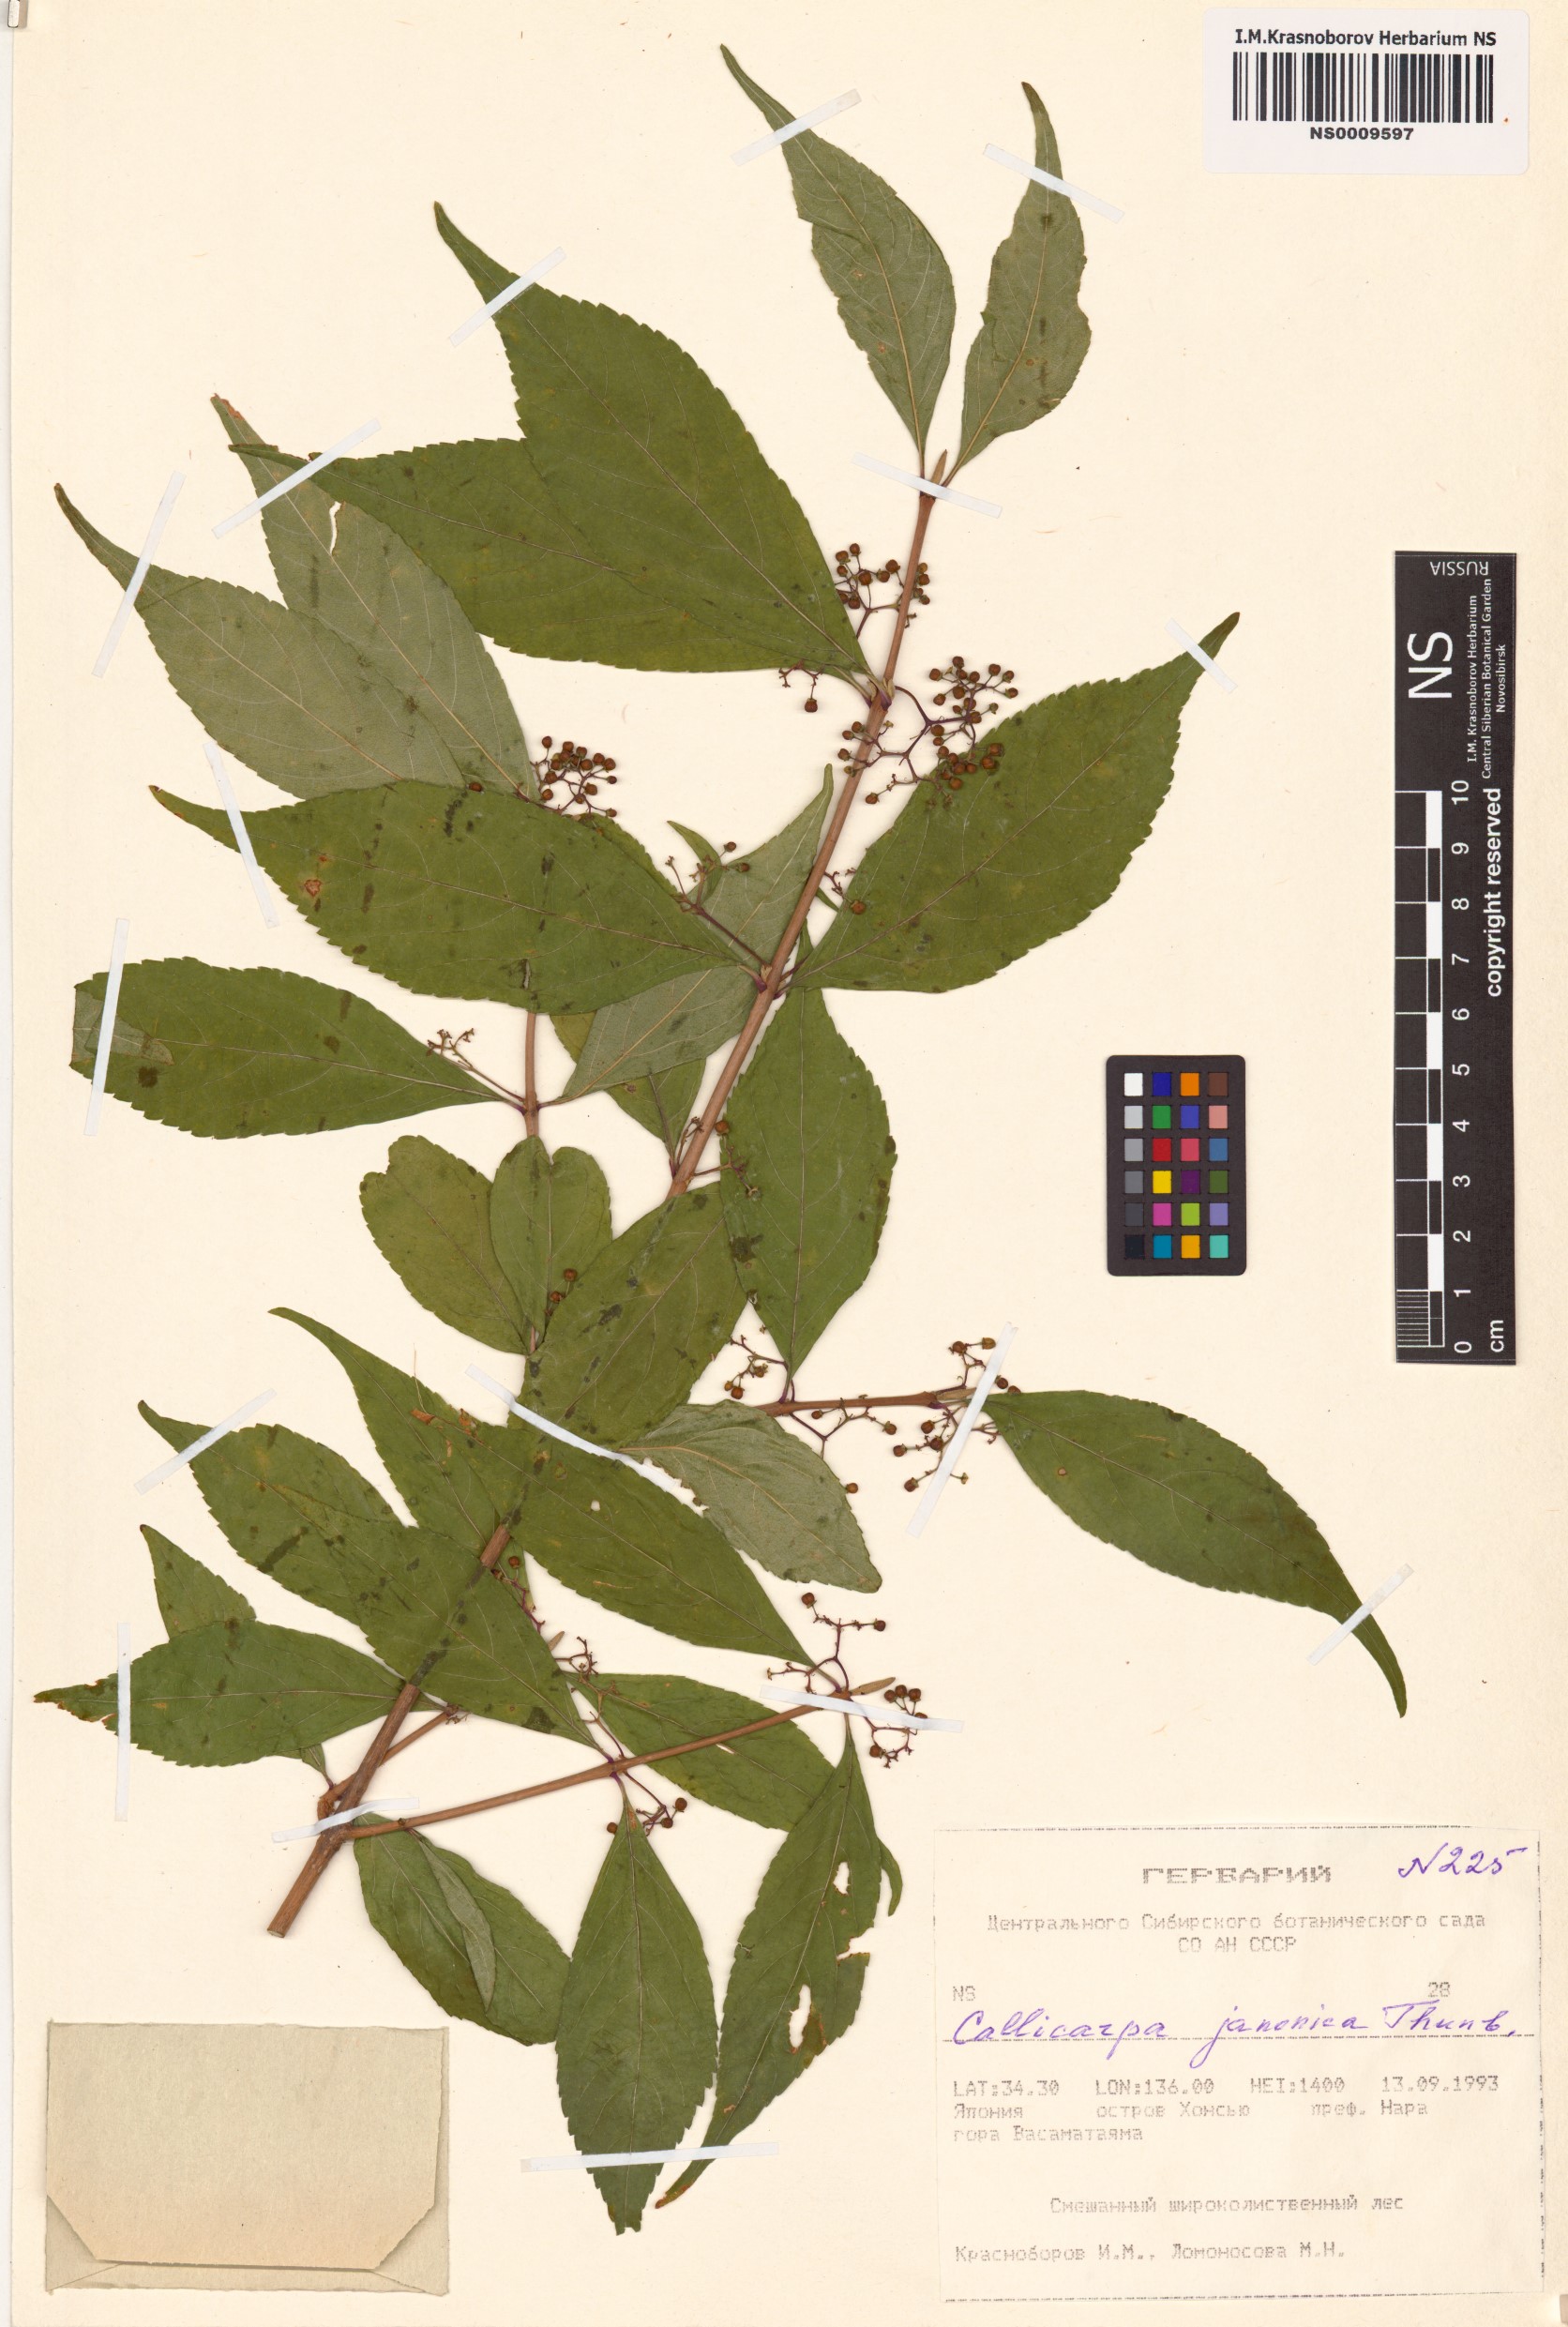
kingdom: Plantae
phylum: Tracheophyta
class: Magnoliopsida
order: Lamiales
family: Lamiaceae
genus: Callicarpa
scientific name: Callicarpa japonica
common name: Japanese beauty-berry
